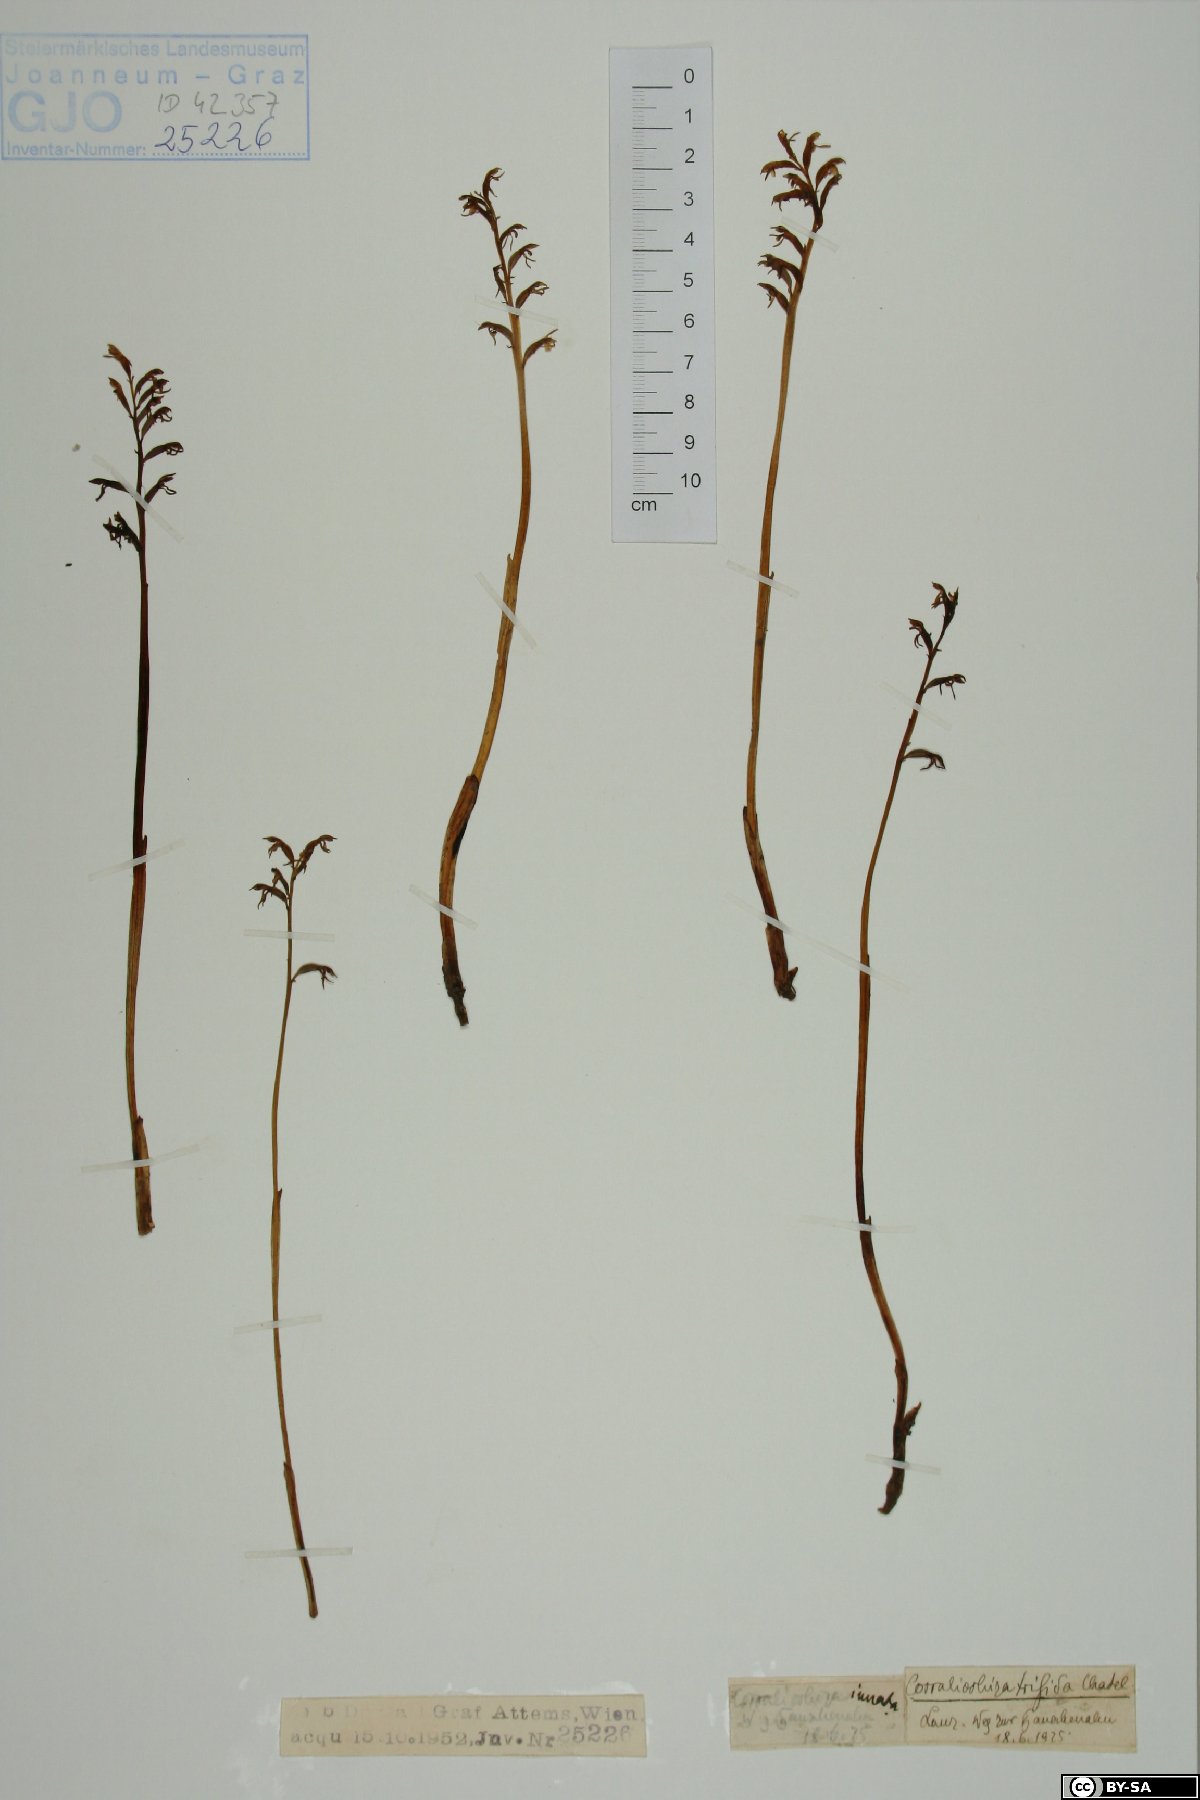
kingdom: Plantae
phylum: Tracheophyta
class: Liliopsida
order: Asparagales
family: Orchidaceae
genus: Corallorhiza
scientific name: Corallorhiza trifida
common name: Yellow coralroot
